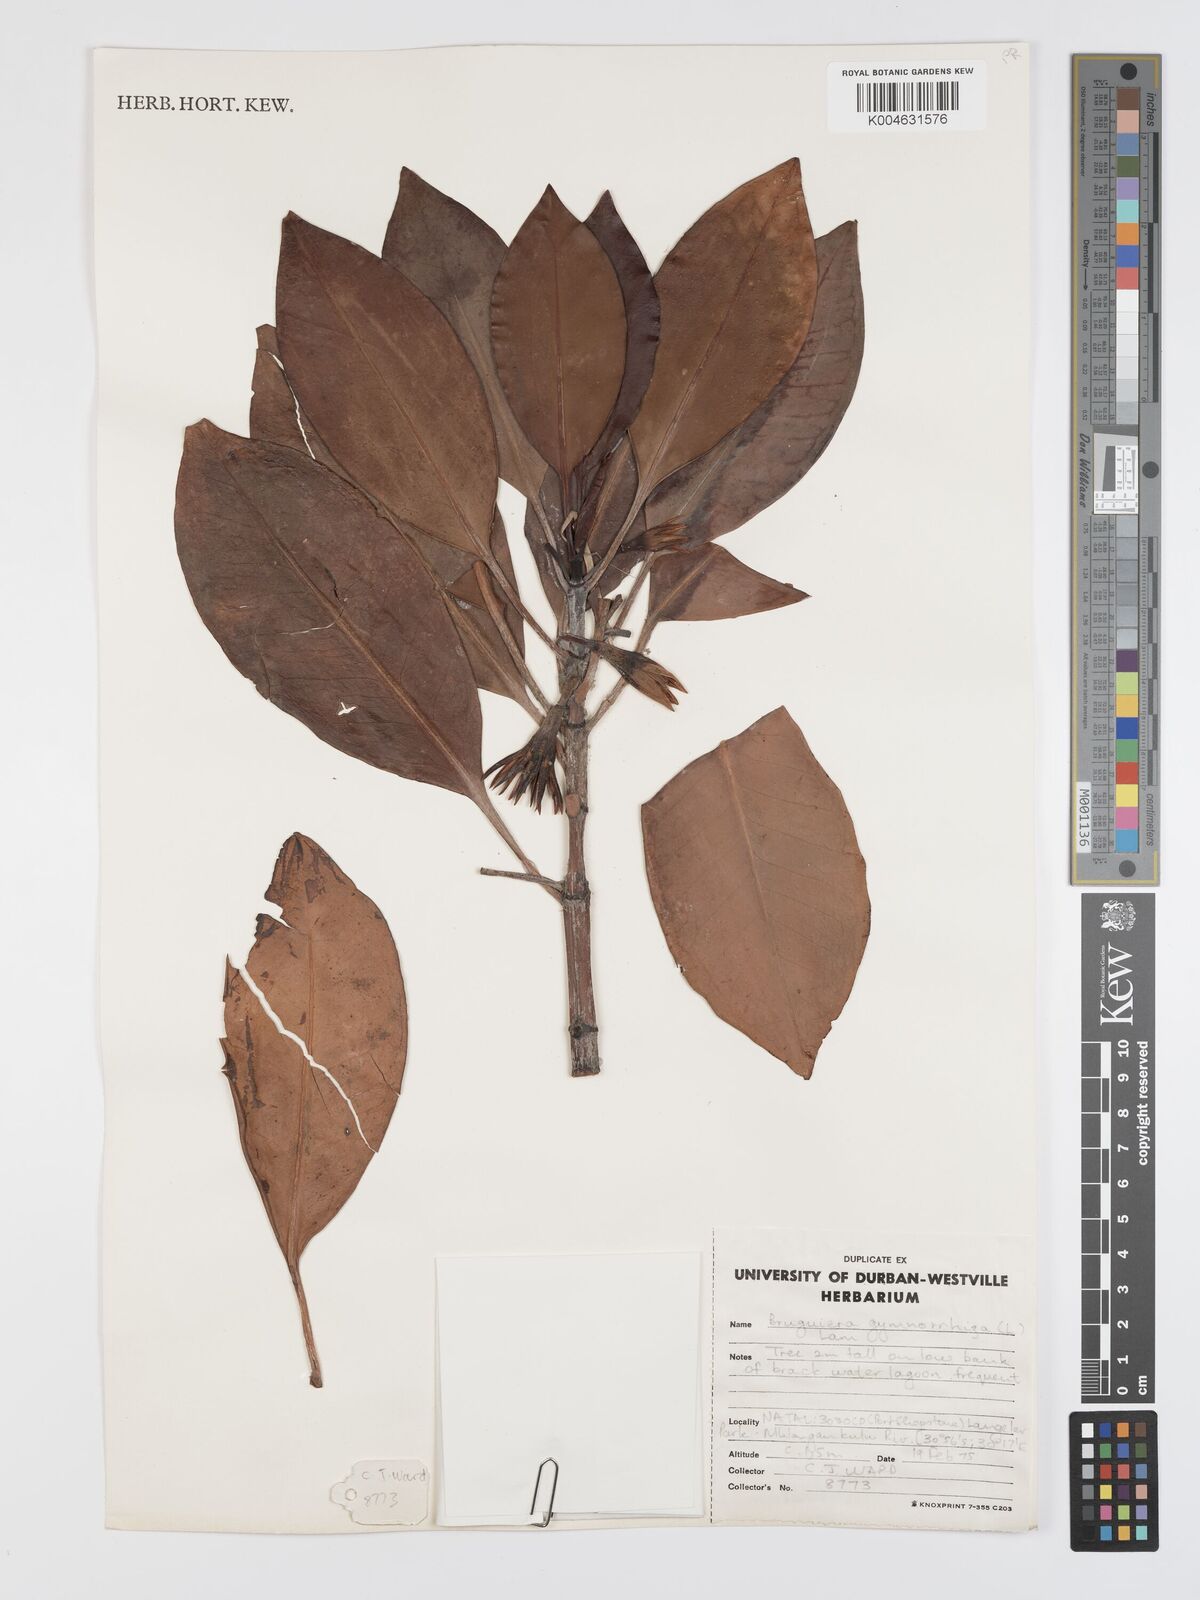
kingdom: Plantae
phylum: Tracheophyta
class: Magnoliopsida
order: Malpighiales
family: Rhizophoraceae
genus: Bruguiera
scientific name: Bruguiera gymnorhiza
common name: Oriental mangrove
